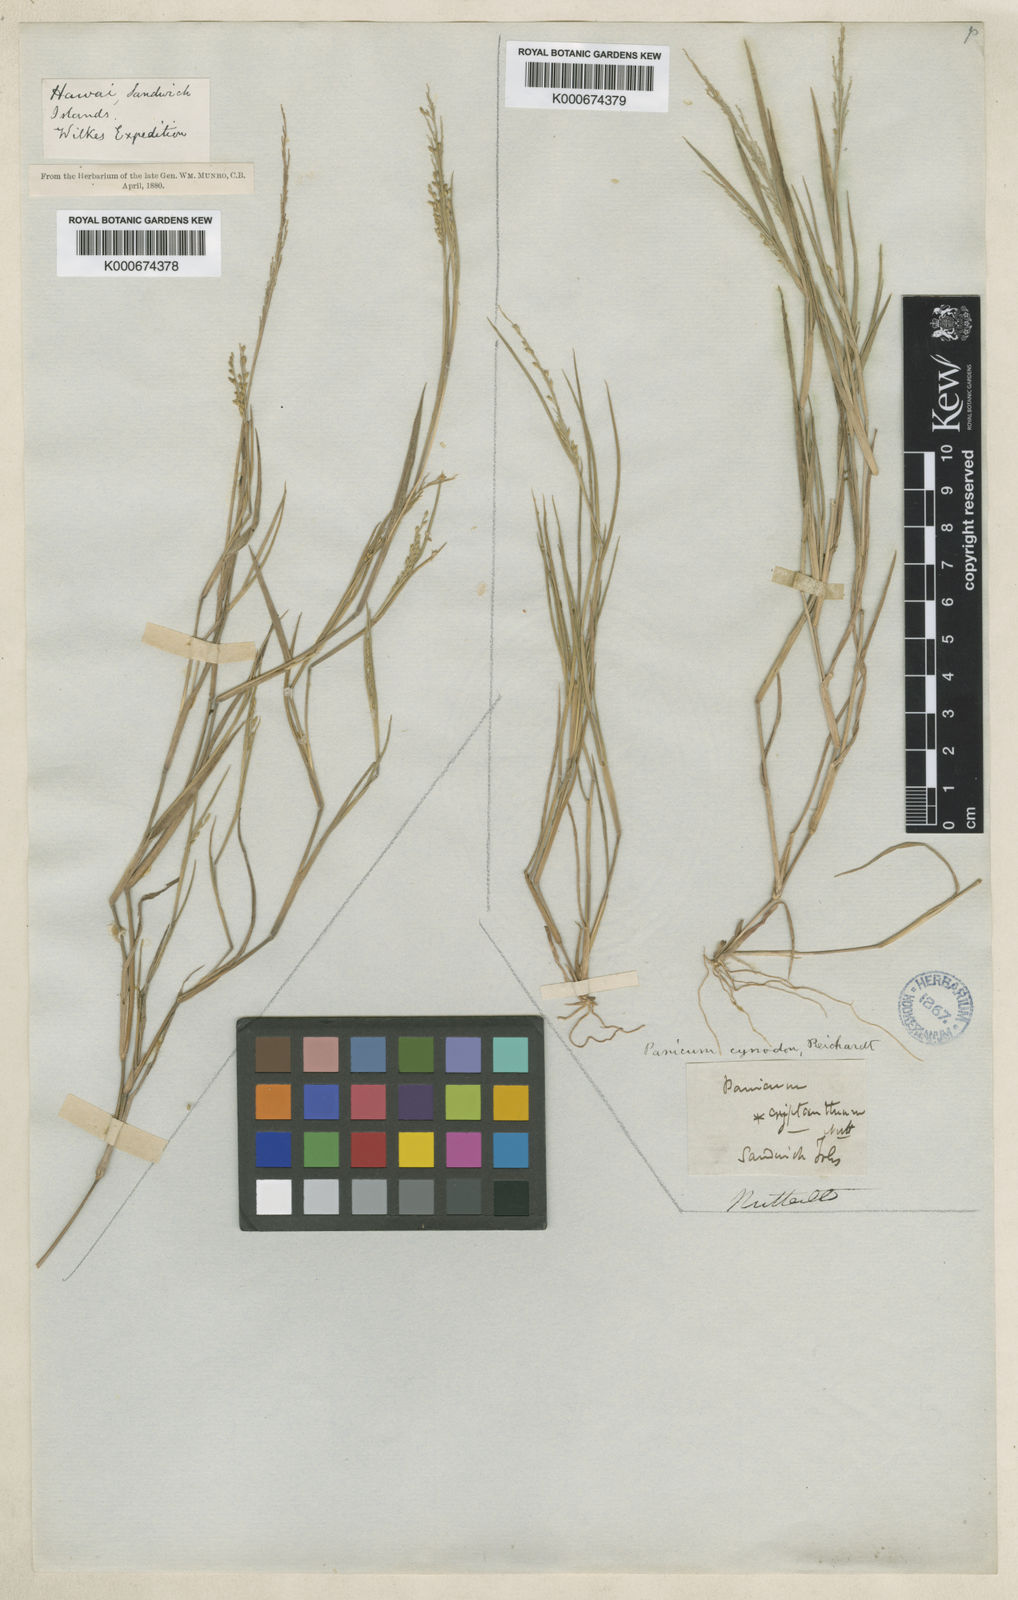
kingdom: Plantae
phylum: Tracheophyta
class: Liliopsida
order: Poales
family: Poaceae
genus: Dichanthelium
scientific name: Dichanthelium cynodon
